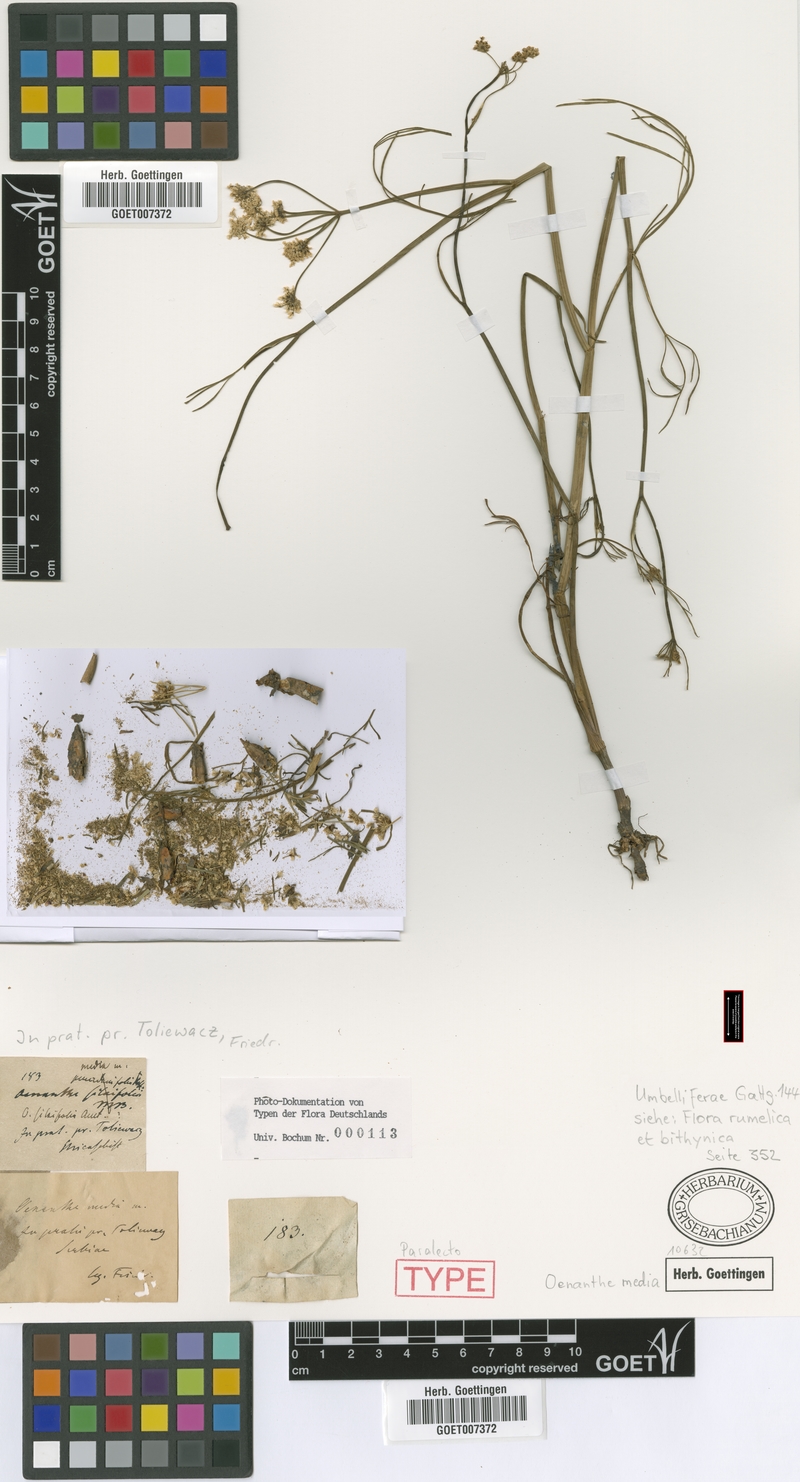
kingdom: Plantae
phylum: Tracheophyta
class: Magnoliopsida
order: Apiales
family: Apiaceae
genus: Oenanthe
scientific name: Oenanthe silaifolia
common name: Narrow-leaved water-dropwort
